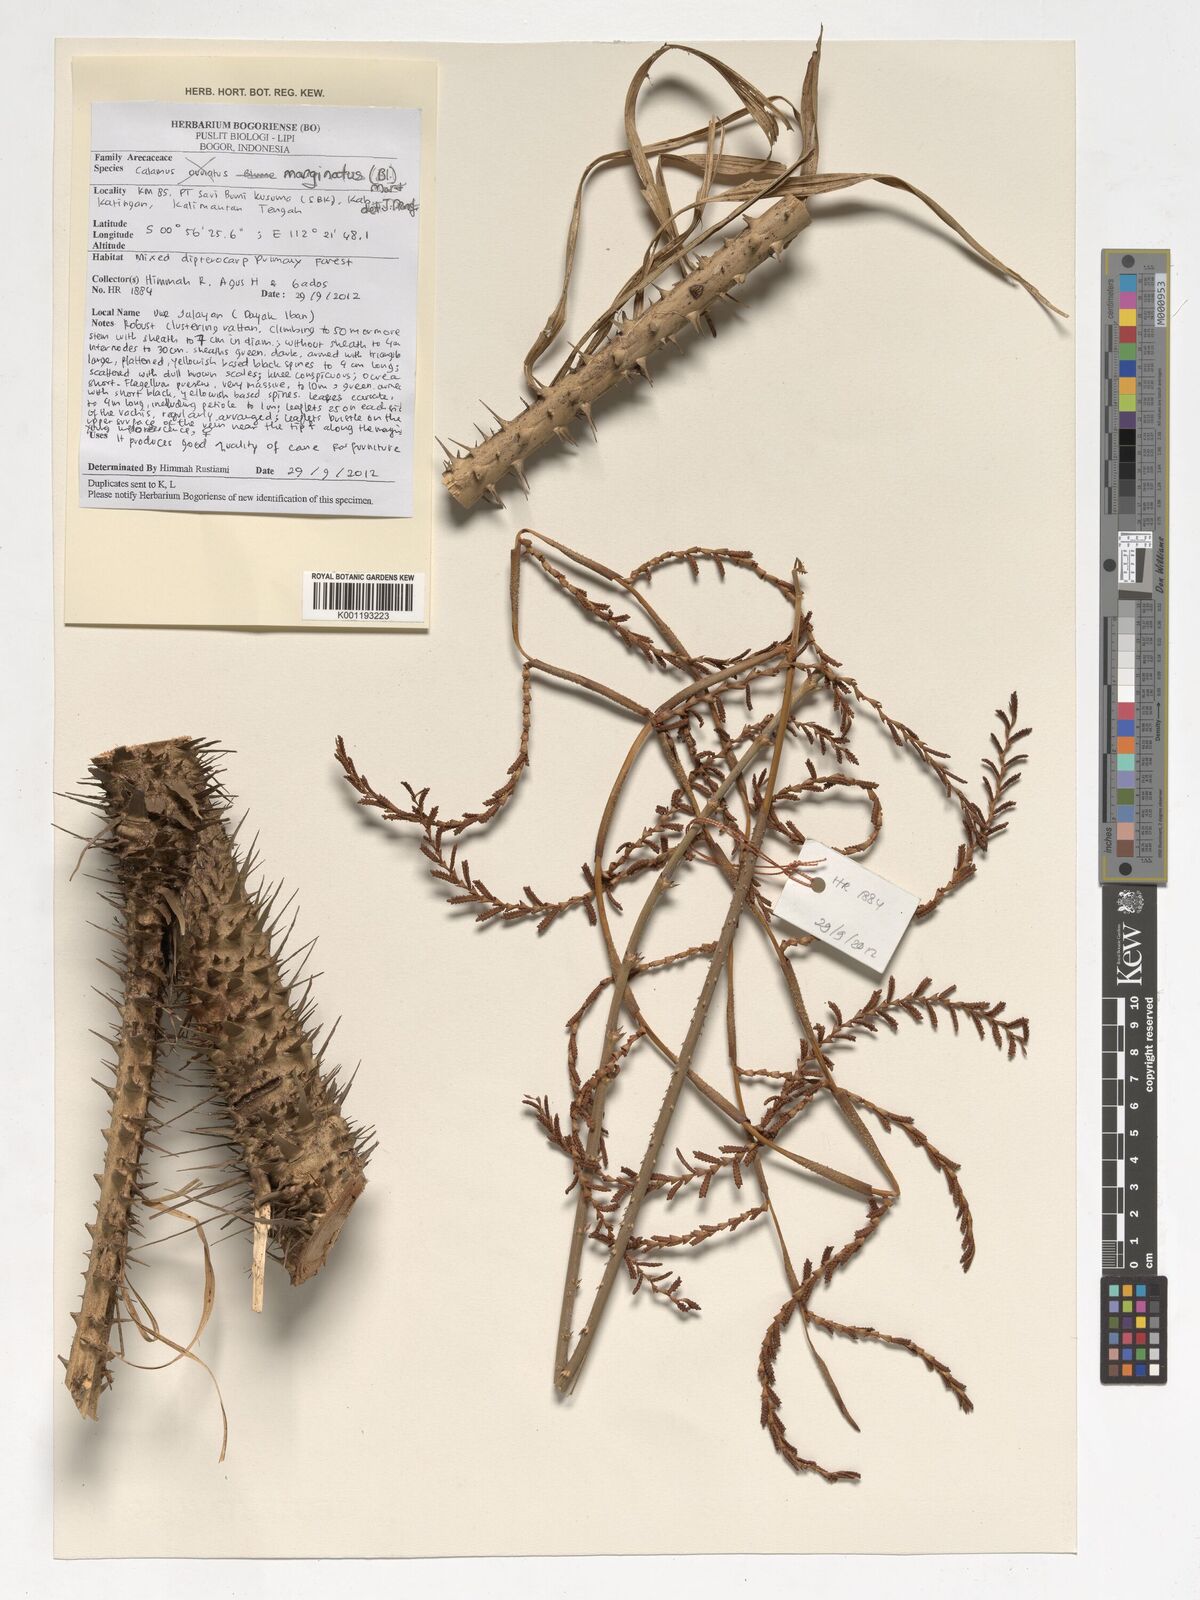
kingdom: Plantae
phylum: Tracheophyta
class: Liliopsida
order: Arecales
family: Arecaceae
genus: Calamus
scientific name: Calamus marginatus
